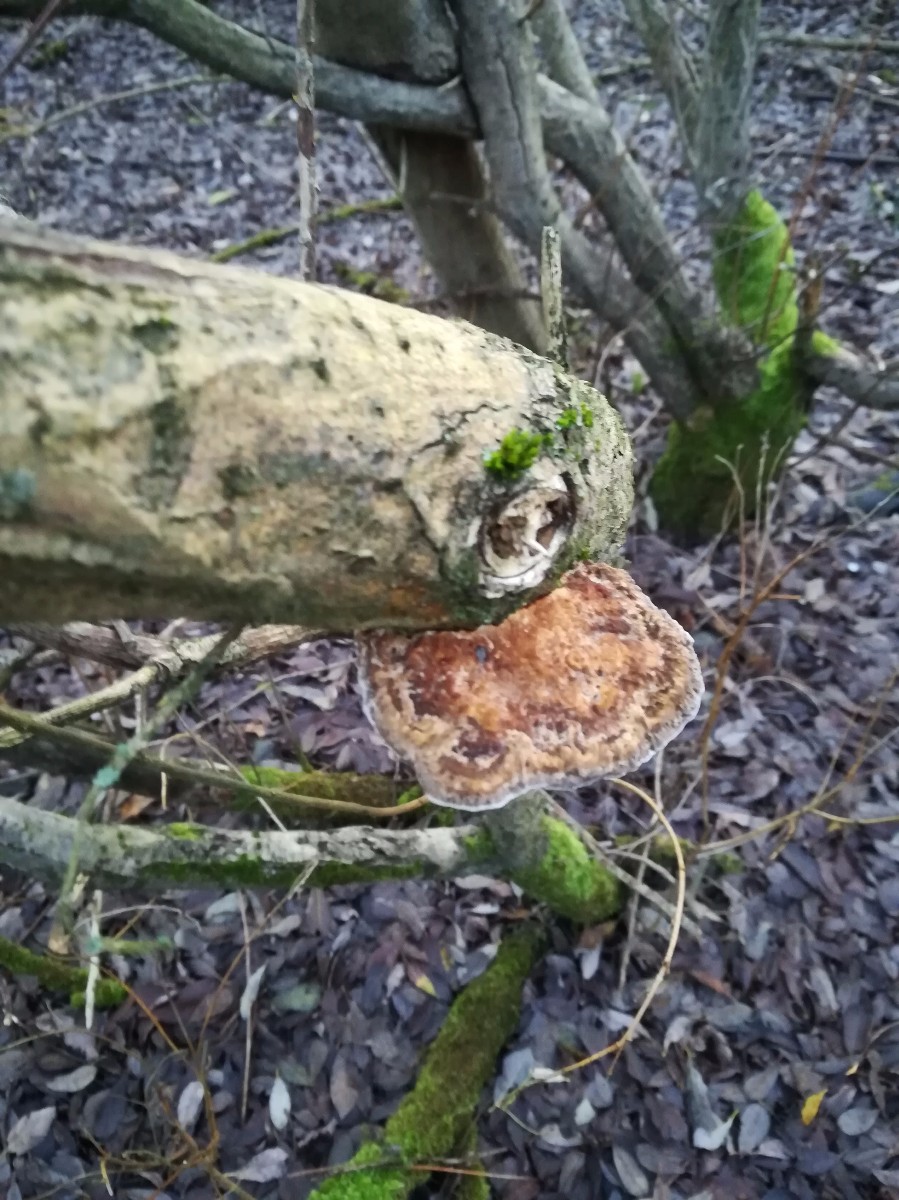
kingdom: Fungi
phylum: Basidiomycota
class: Agaricomycetes
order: Polyporales
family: Polyporaceae
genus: Daedaleopsis
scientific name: Daedaleopsis confragosa
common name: rødmende læderporesvamp
